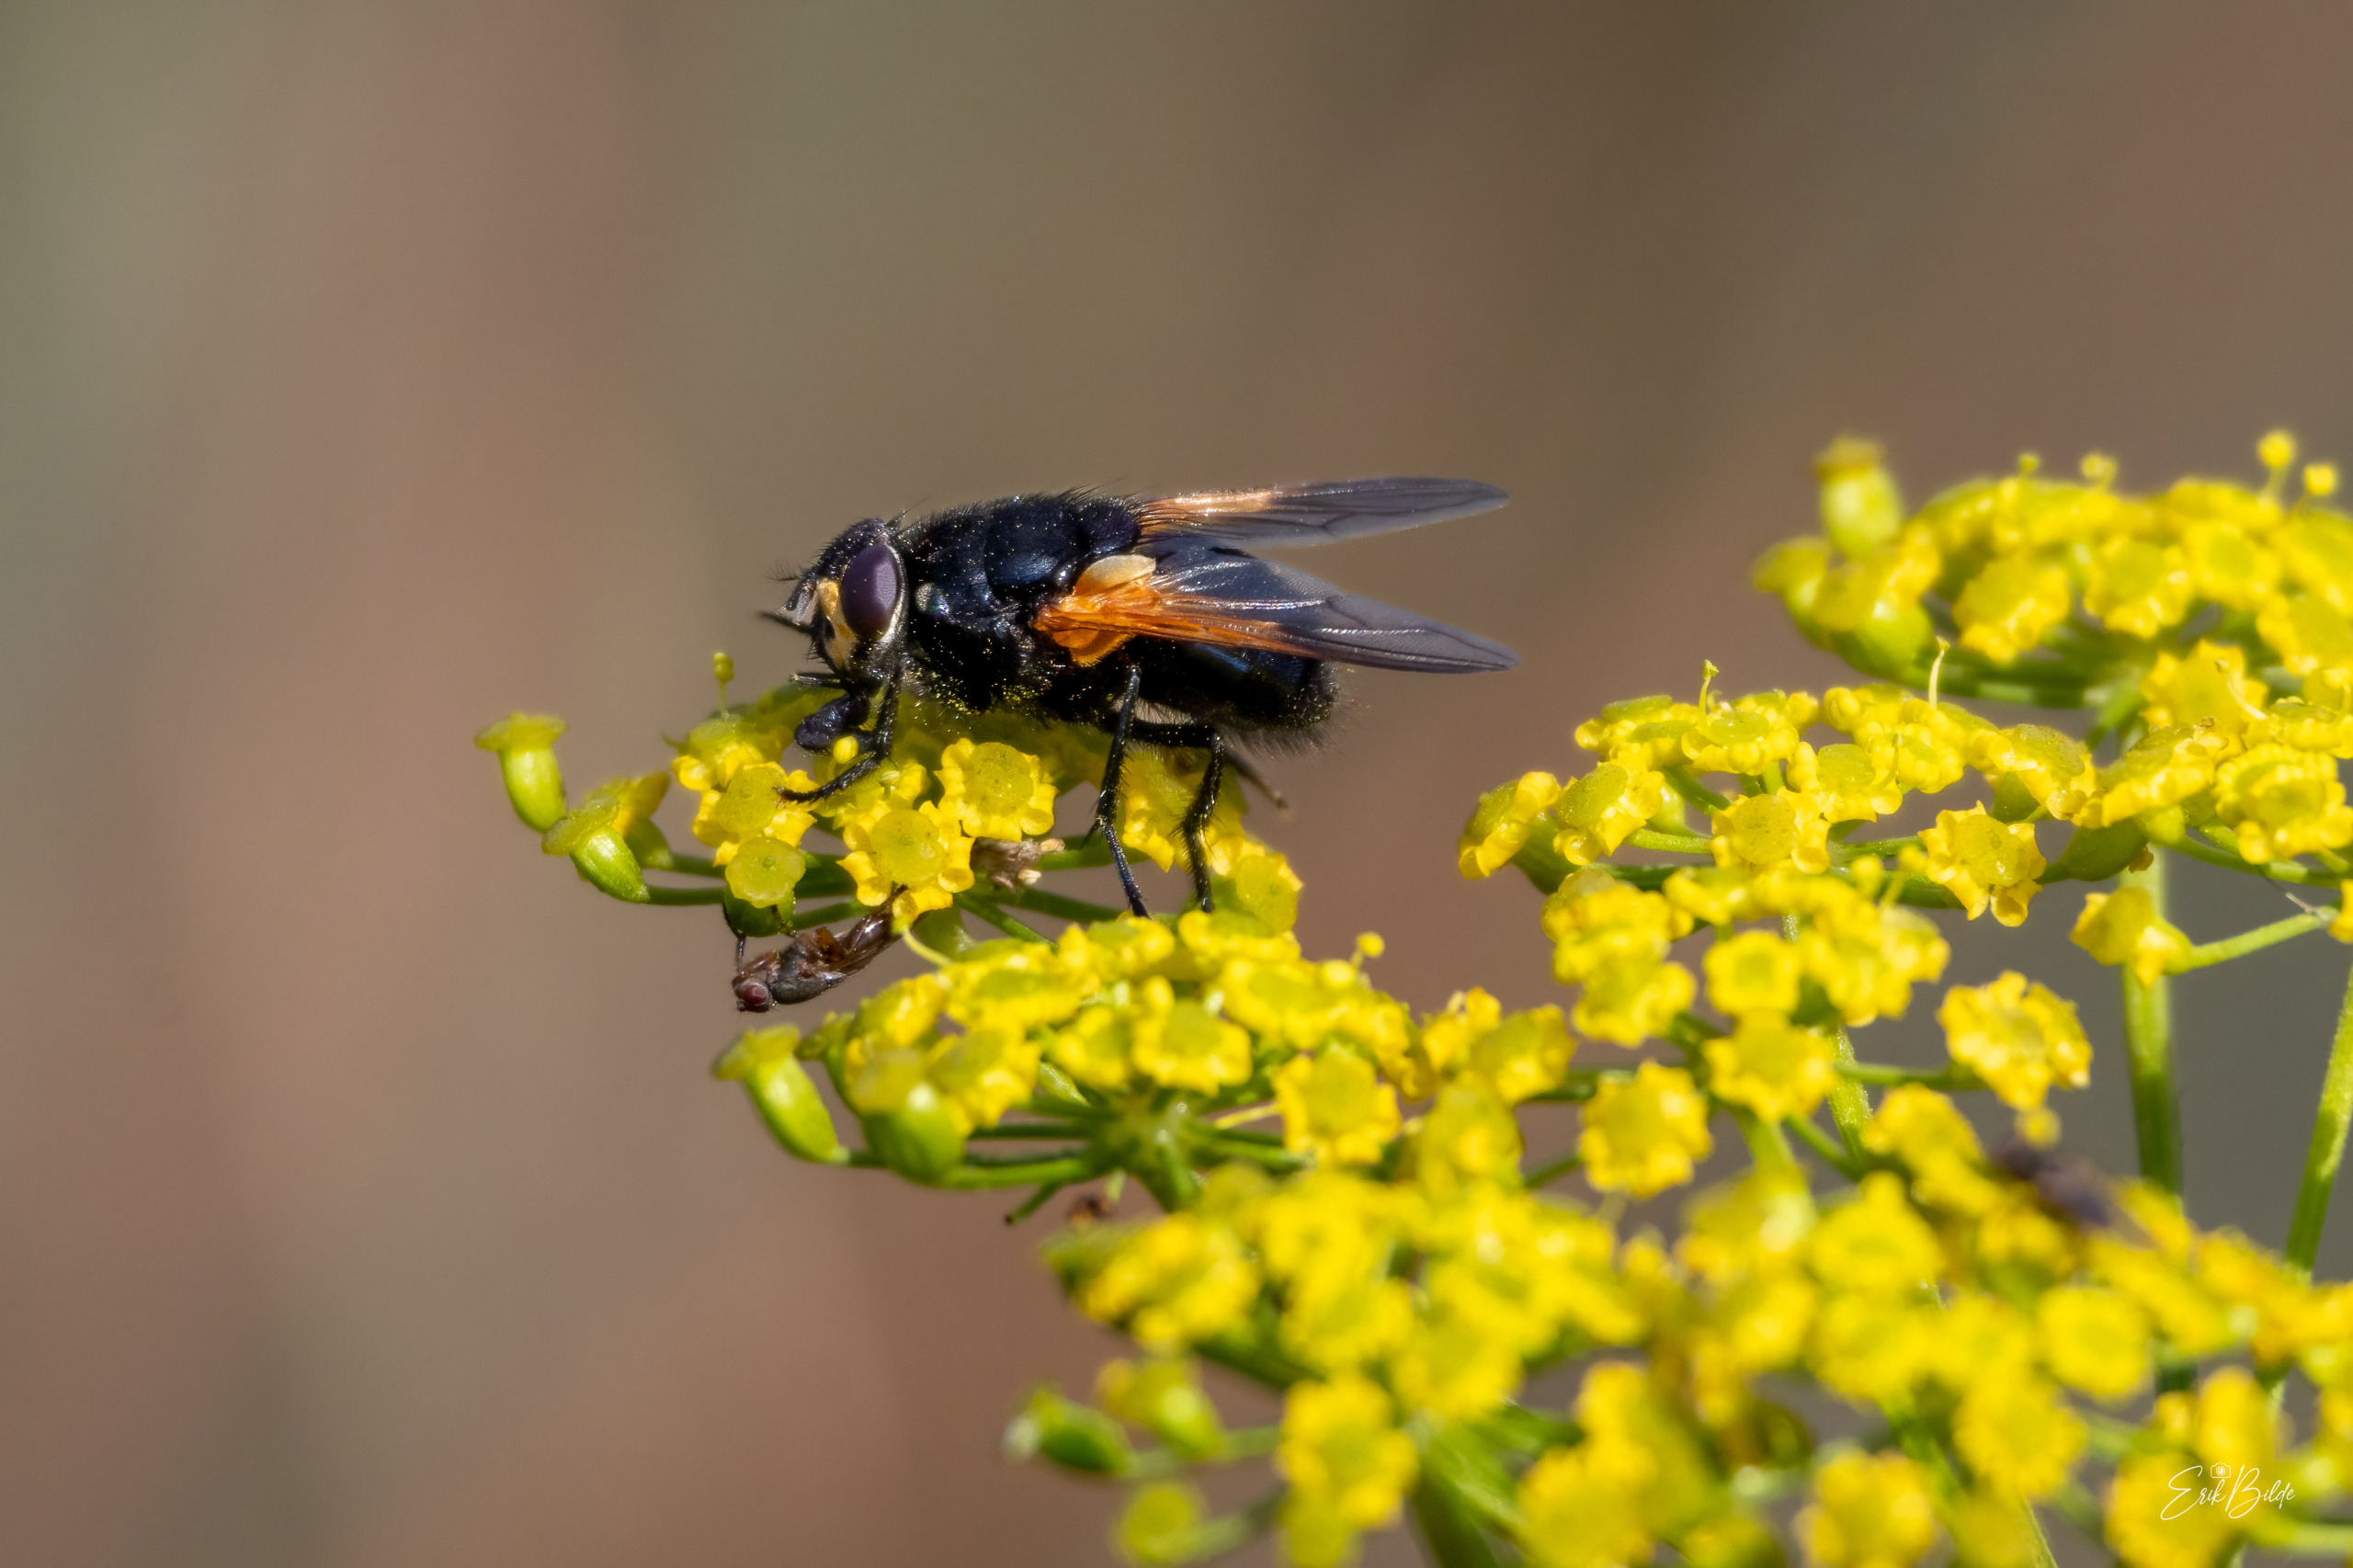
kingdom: Animalia
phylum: Arthropoda
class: Insecta
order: Diptera
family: Muscidae
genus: Mesembrina
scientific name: Mesembrina meridiana
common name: Gulvinget flue
